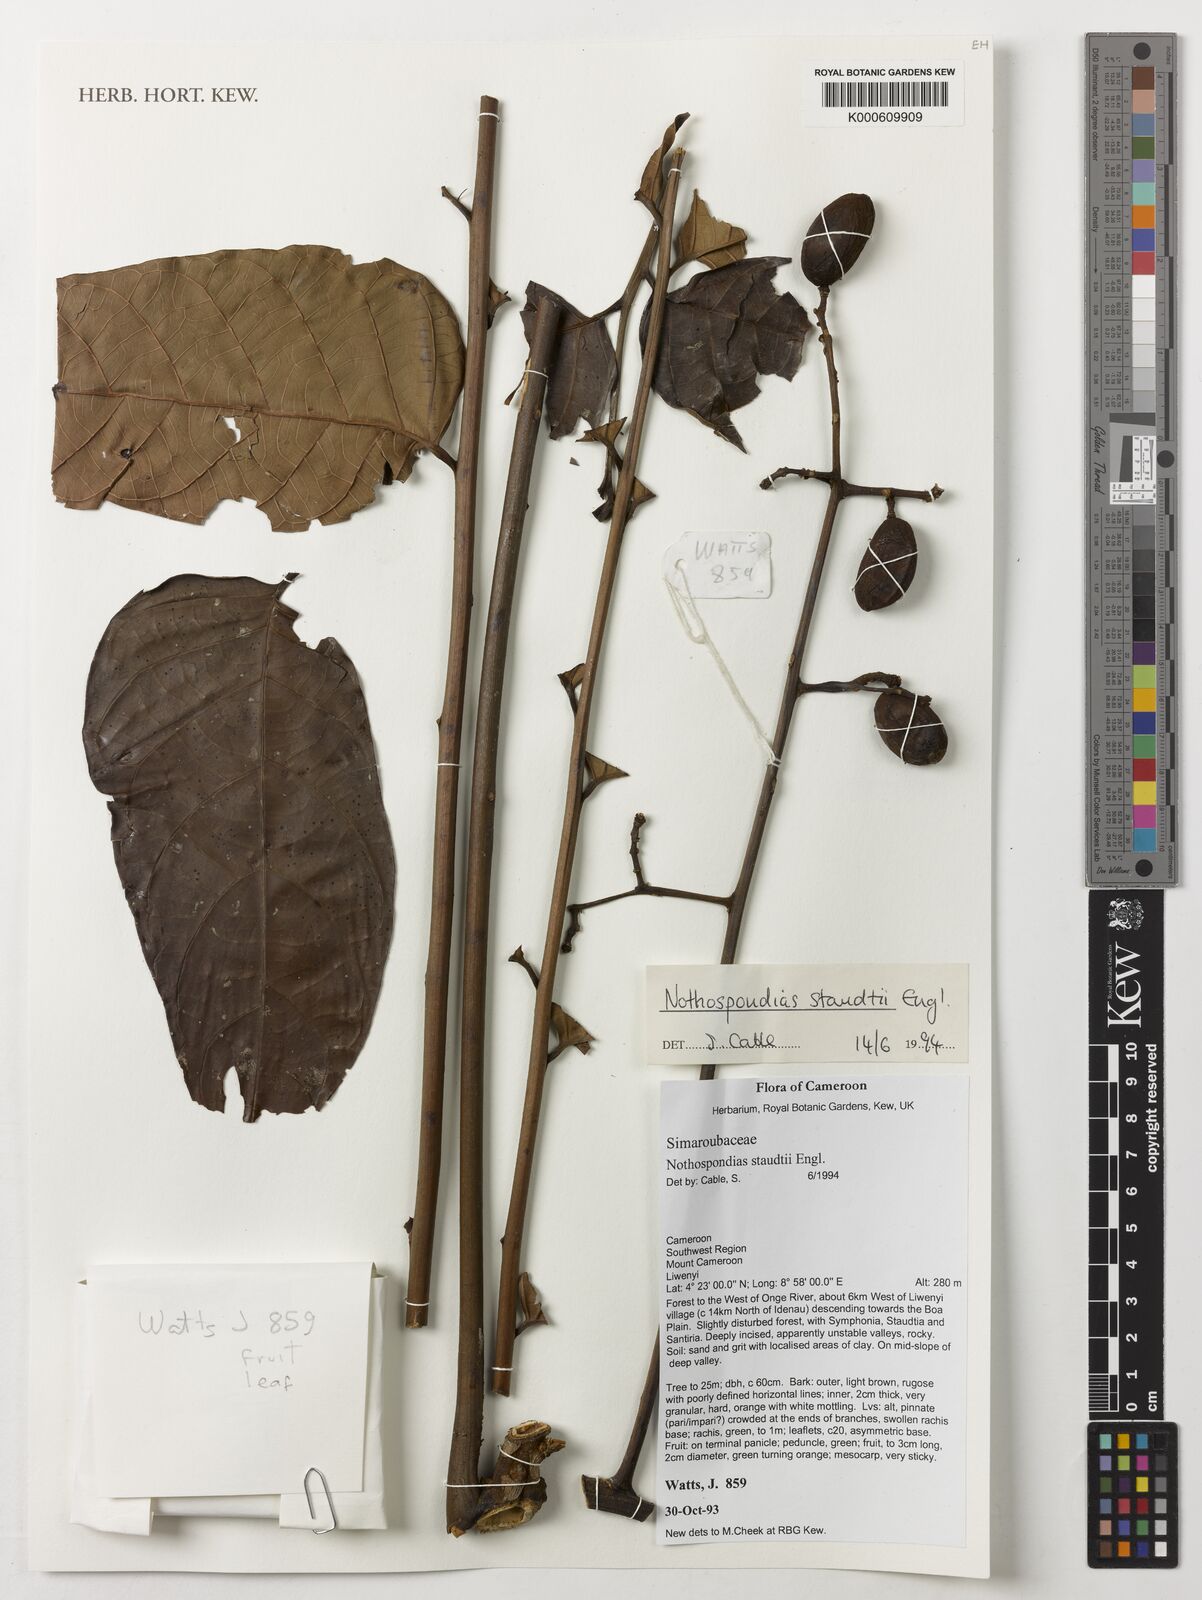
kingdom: Plantae
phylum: Tracheophyta
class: Magnoliopsida
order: Sapindales
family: Simaroubaceae
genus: Nothospondias
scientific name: Nothospondias staudtii
